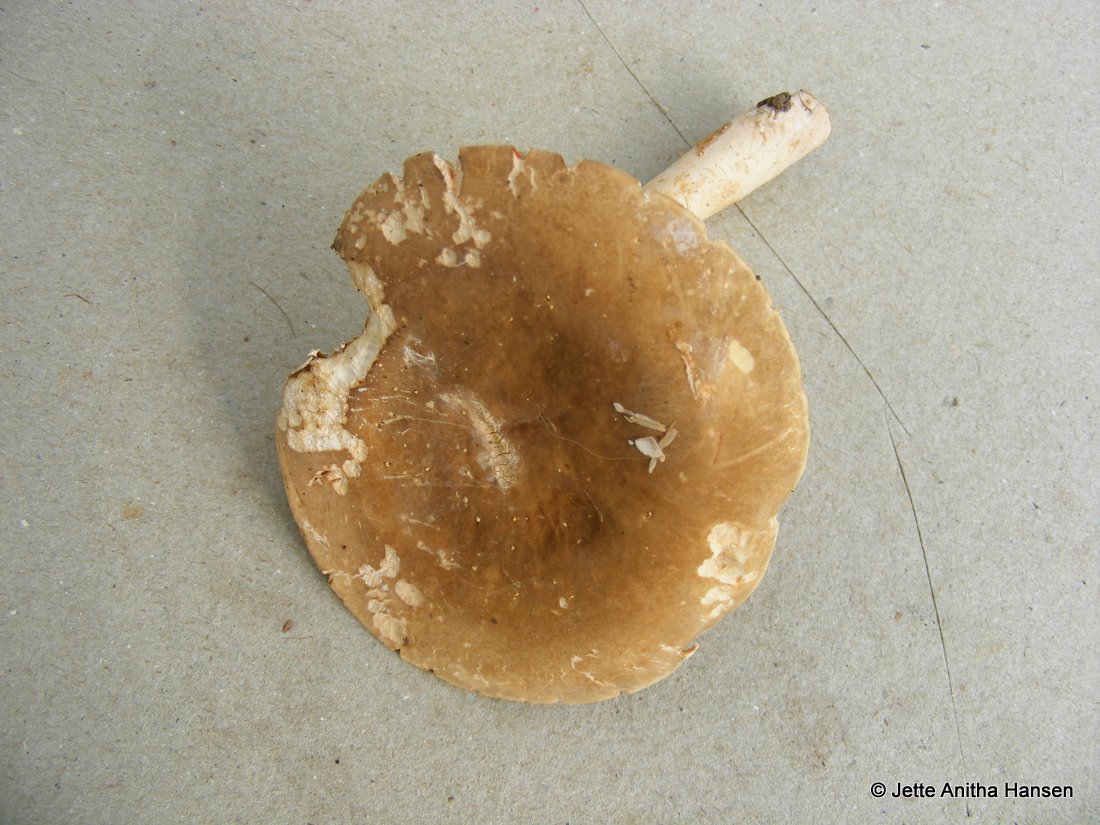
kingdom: Fungi
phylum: Basidiomycota
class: Agaricomycetes
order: Russulales
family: Russulaceae
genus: Lactarius
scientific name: Lactarius acris
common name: rosamælket mælkehat
